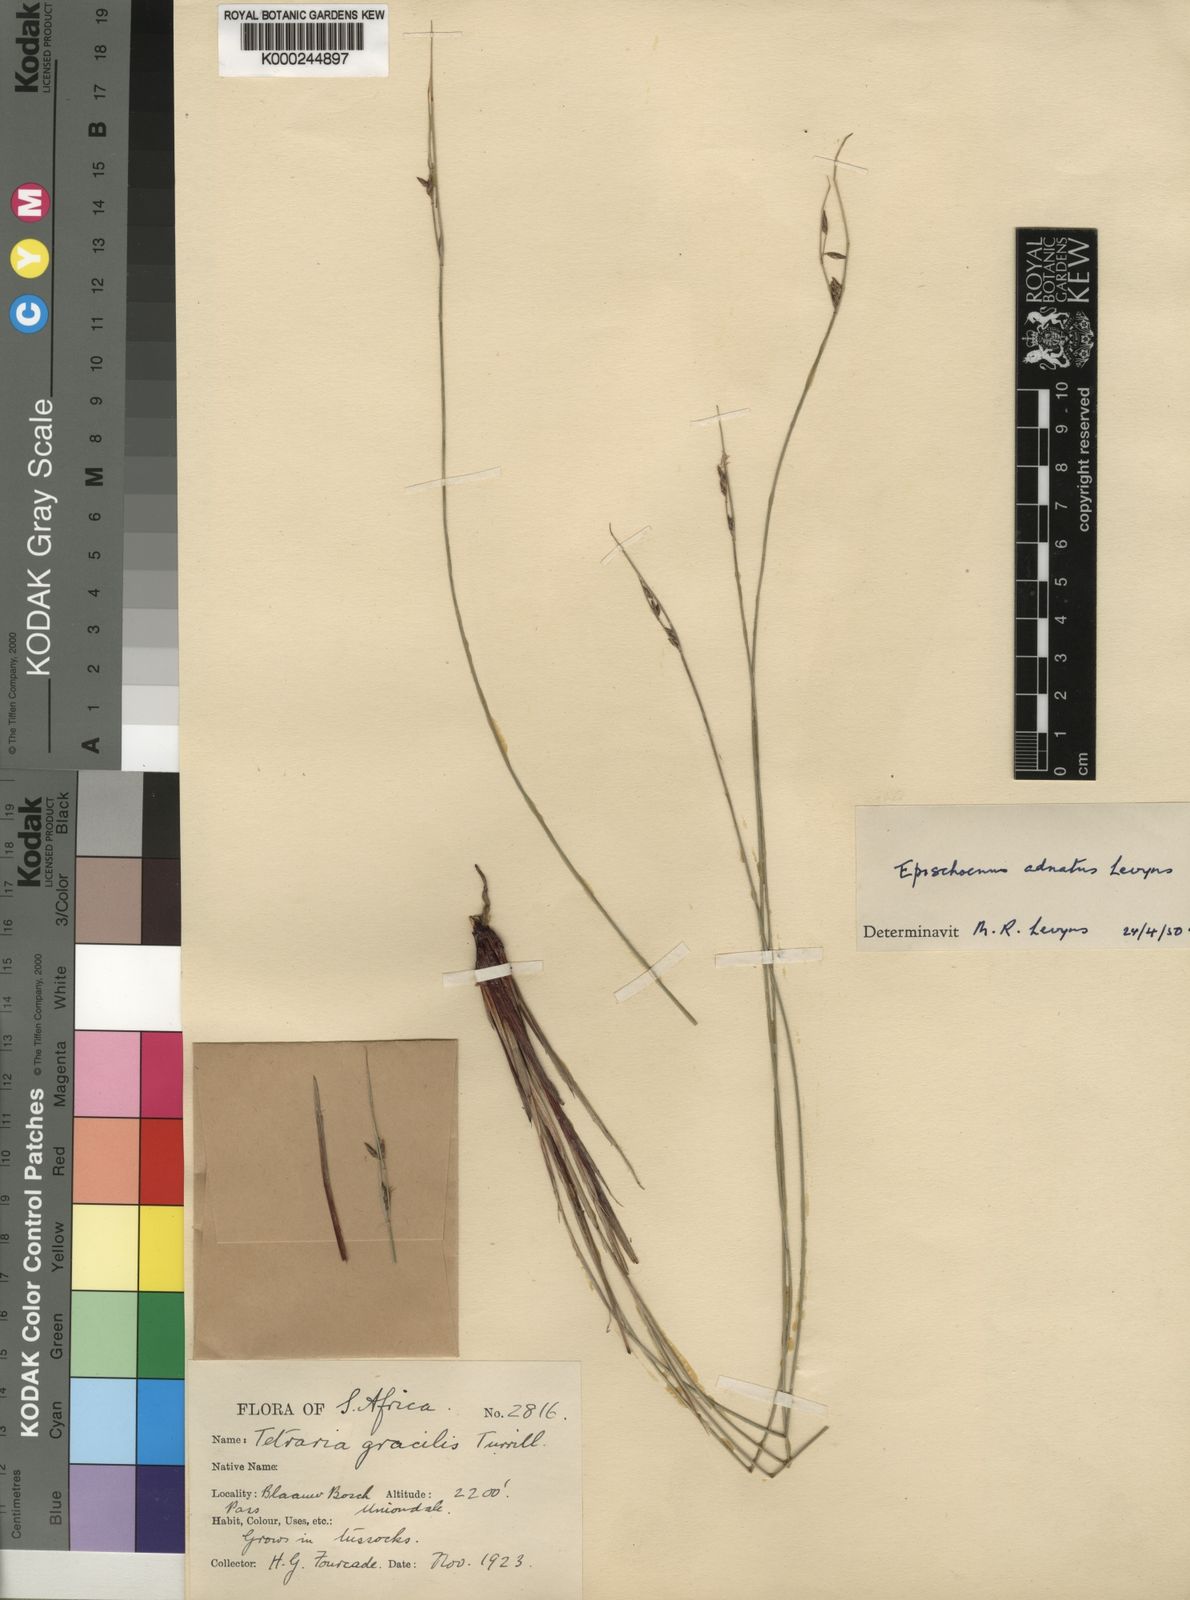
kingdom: Plantae
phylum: Tracheophyta
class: Liliopsida
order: Poales
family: Cyperaceae
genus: Schoenus
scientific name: Schoenus adnatus
